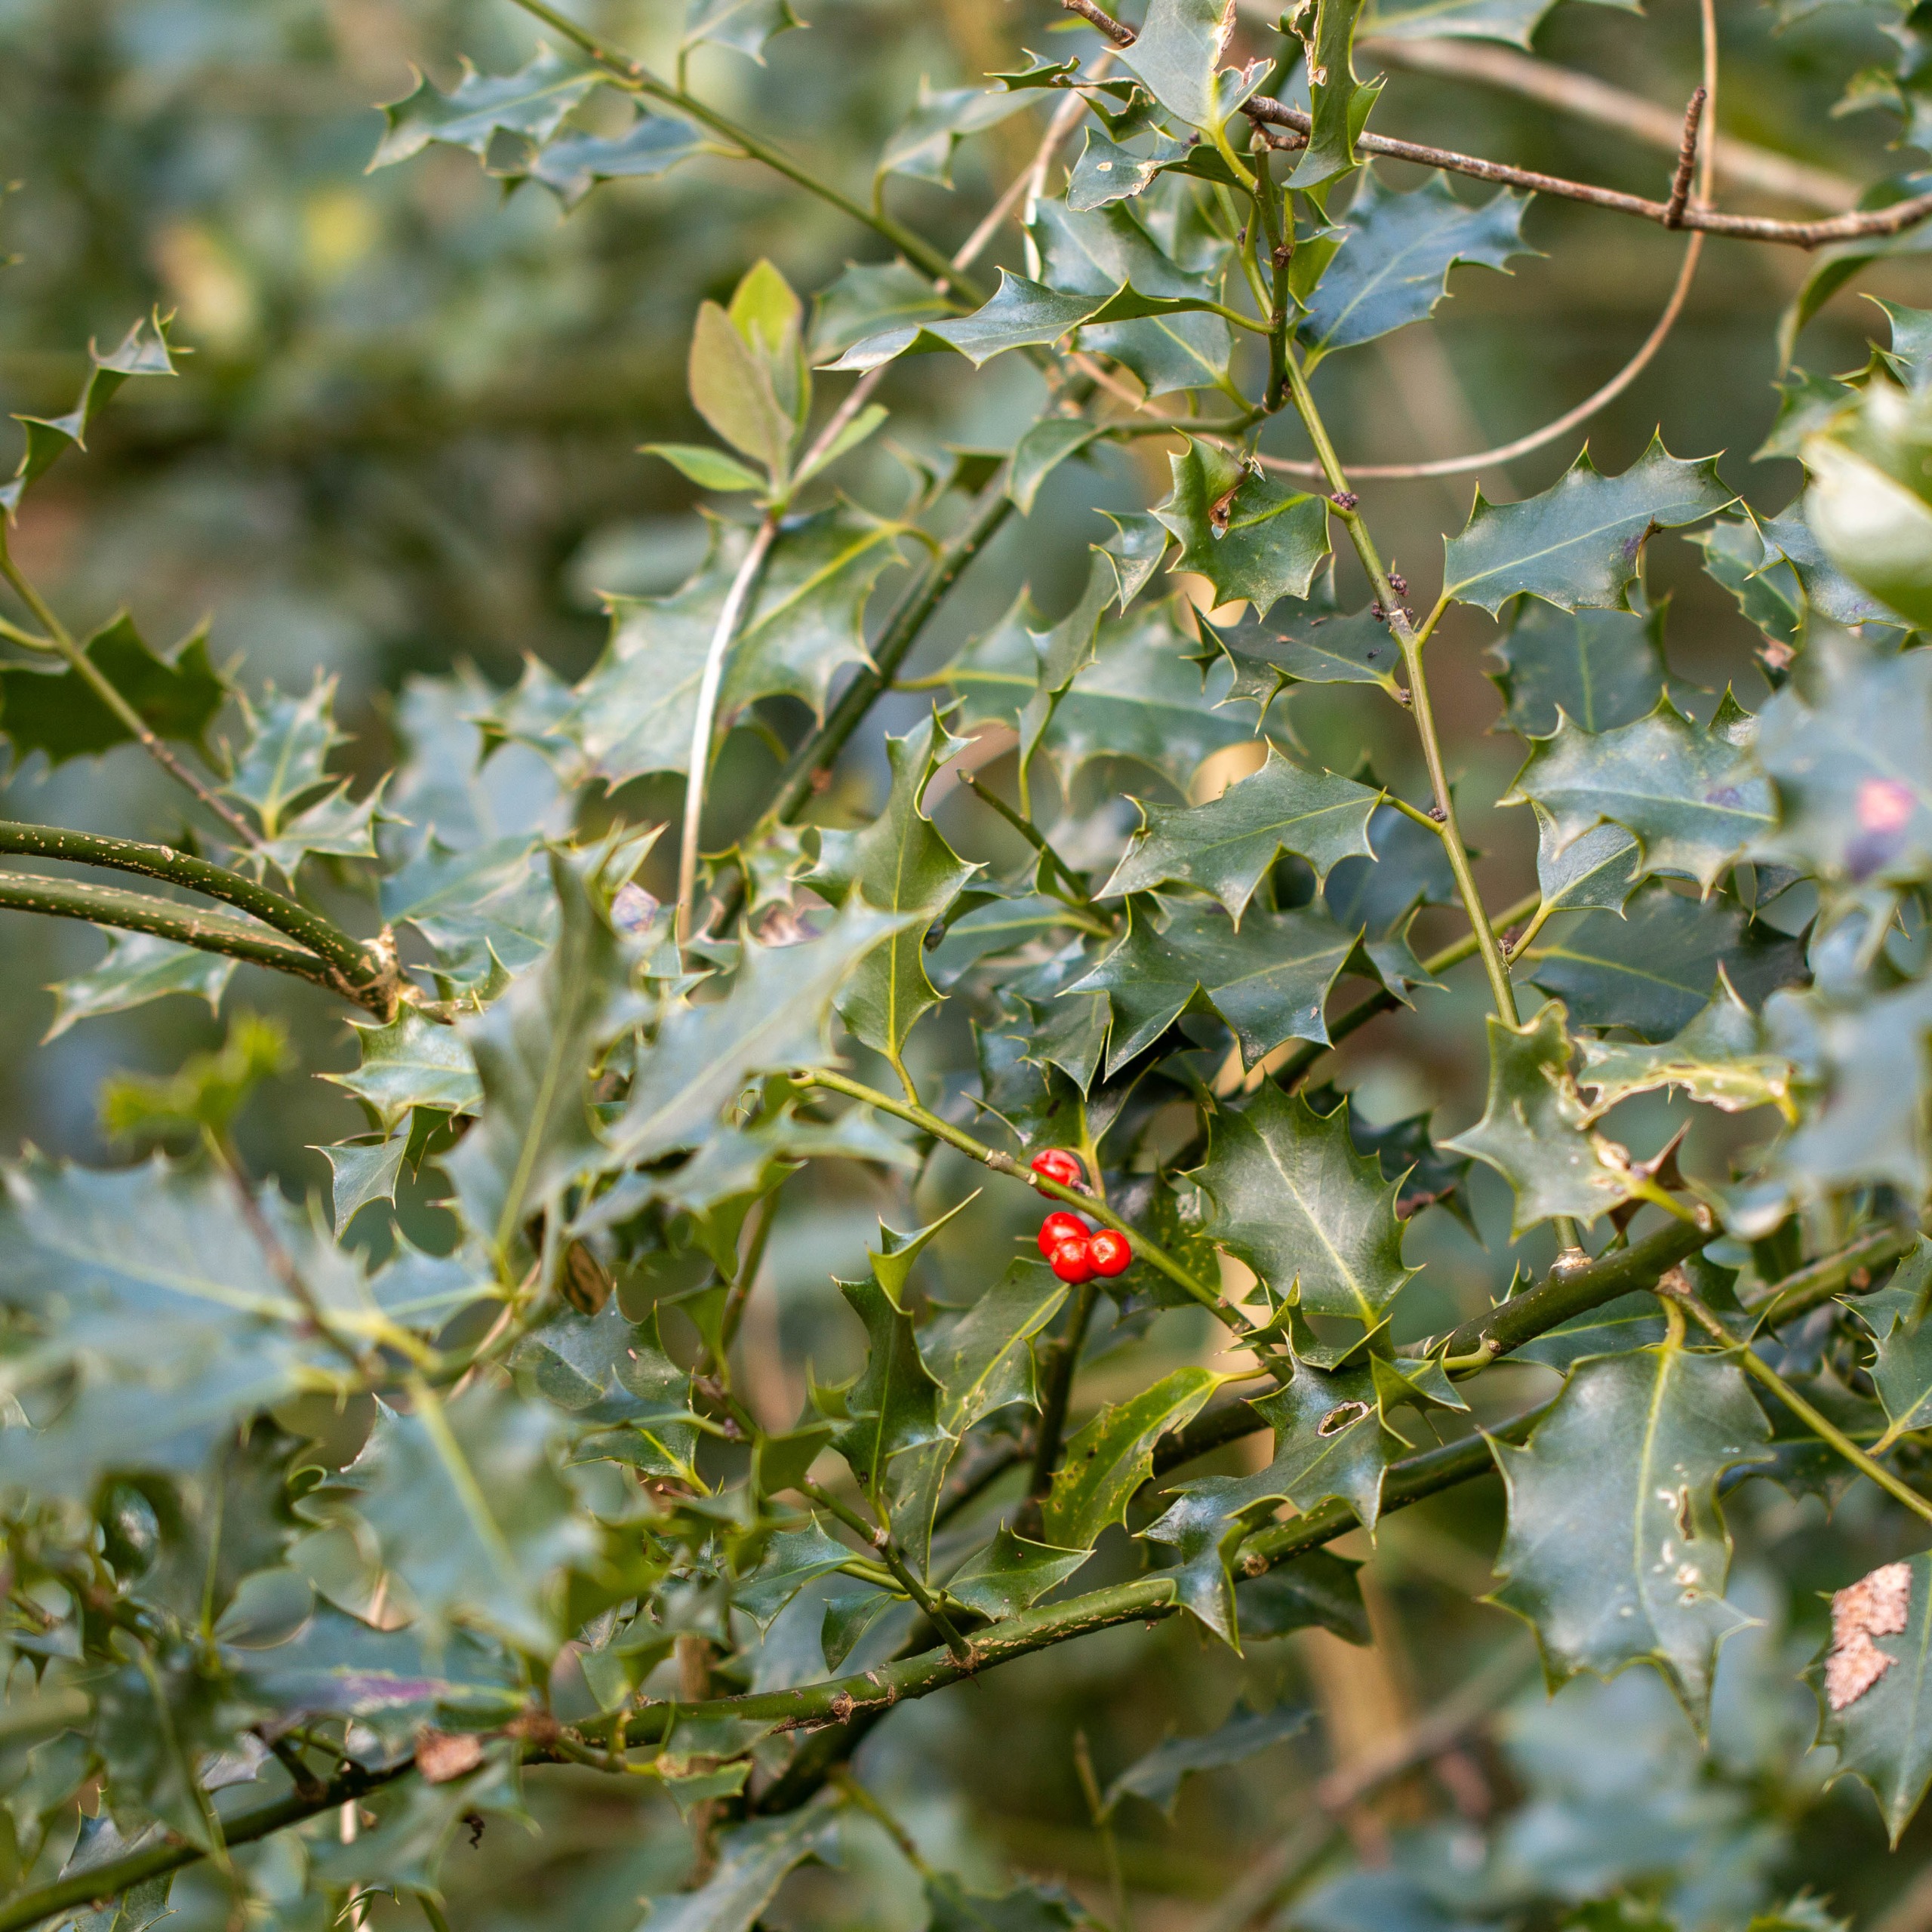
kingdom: Plantae
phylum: Tracheophyta
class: Magnoliopsida
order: Aquifoliales
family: Aquifoliaceae
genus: Ilex
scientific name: Ilex aquifolium
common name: Kristtorn
